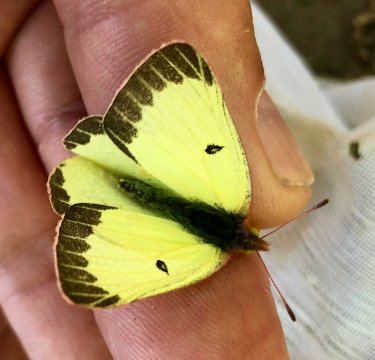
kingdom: Animalia
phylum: Arthropoda
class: Insecta
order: Lepidoptera
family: Pieridae
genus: Colias
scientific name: Colias philodice
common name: Clouded Sulphur
